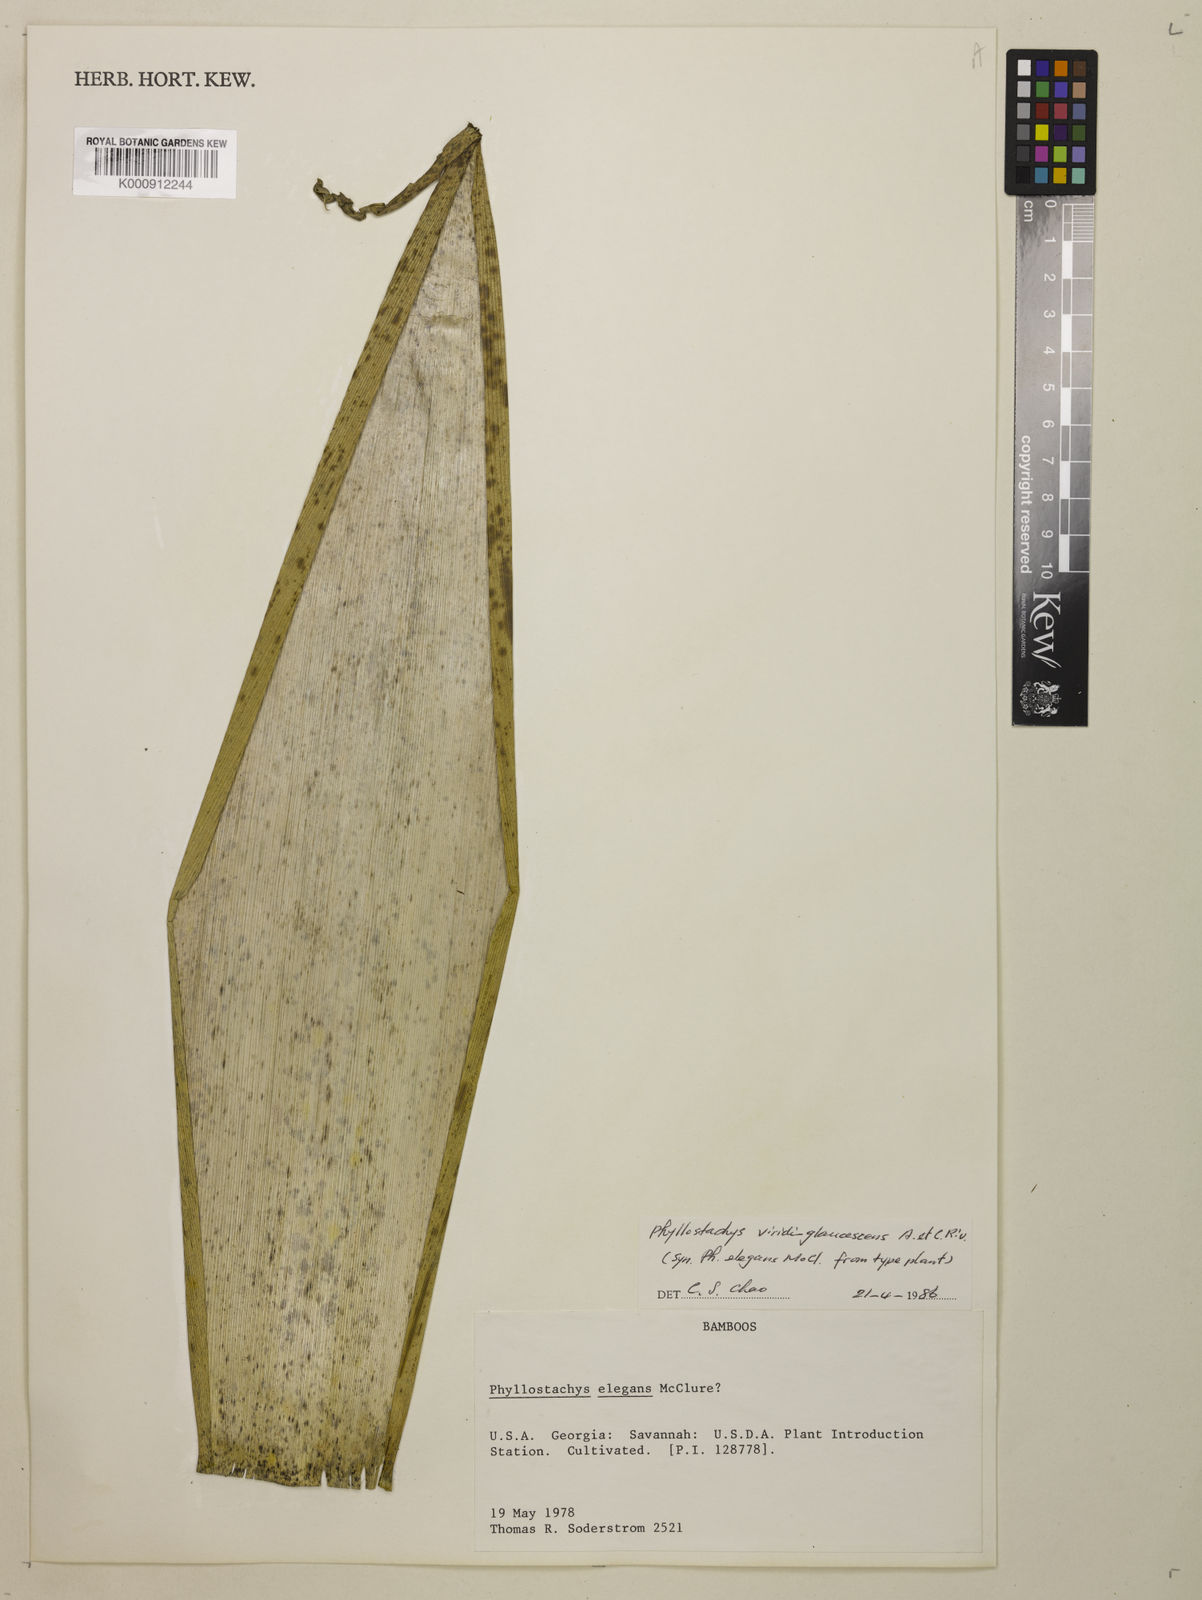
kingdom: Plantae
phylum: Tracheophyta
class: Liliopsida
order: Poales
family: Poaceae
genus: Phyllostachys
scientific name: Phyllostachys
